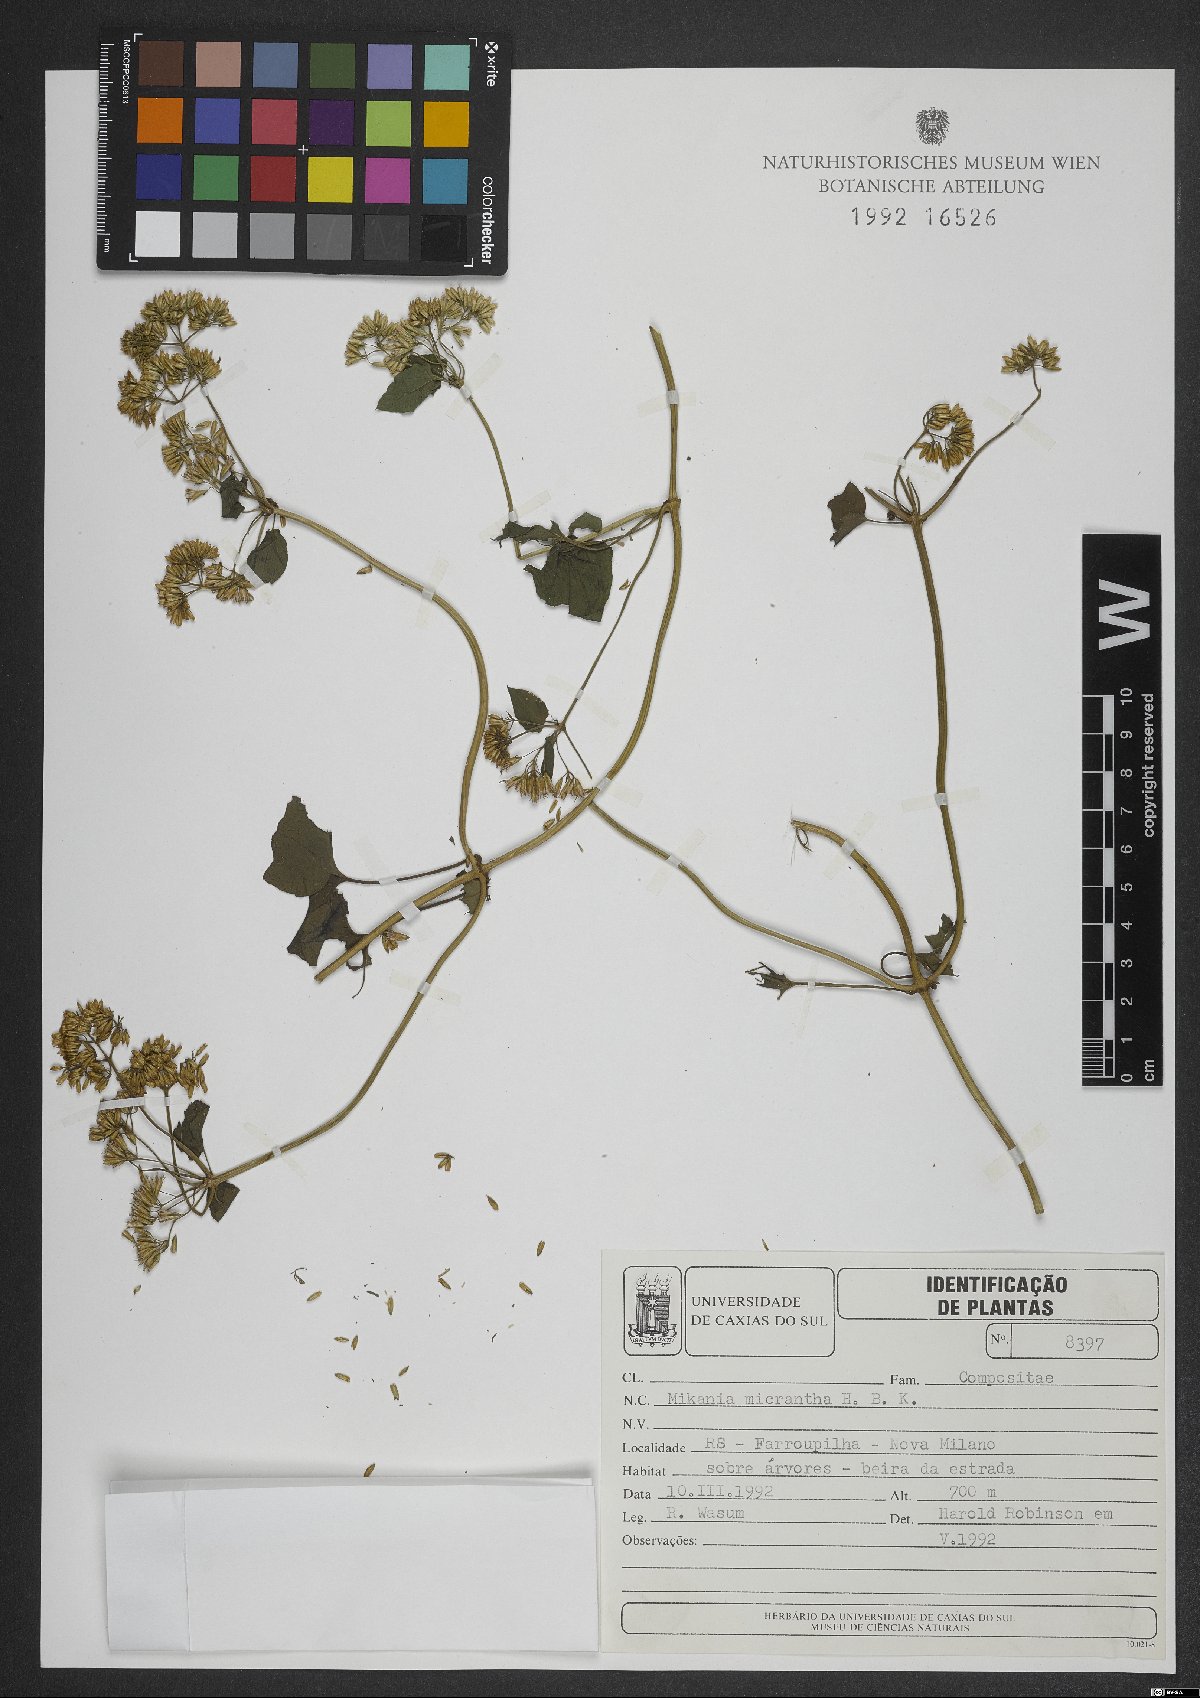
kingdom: Plantae
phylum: Tracheophyta
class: Magnoliopsida
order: Asterales
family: Asteraceae
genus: Mikania
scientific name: Mikania micrantha
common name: Mile-a-minute
